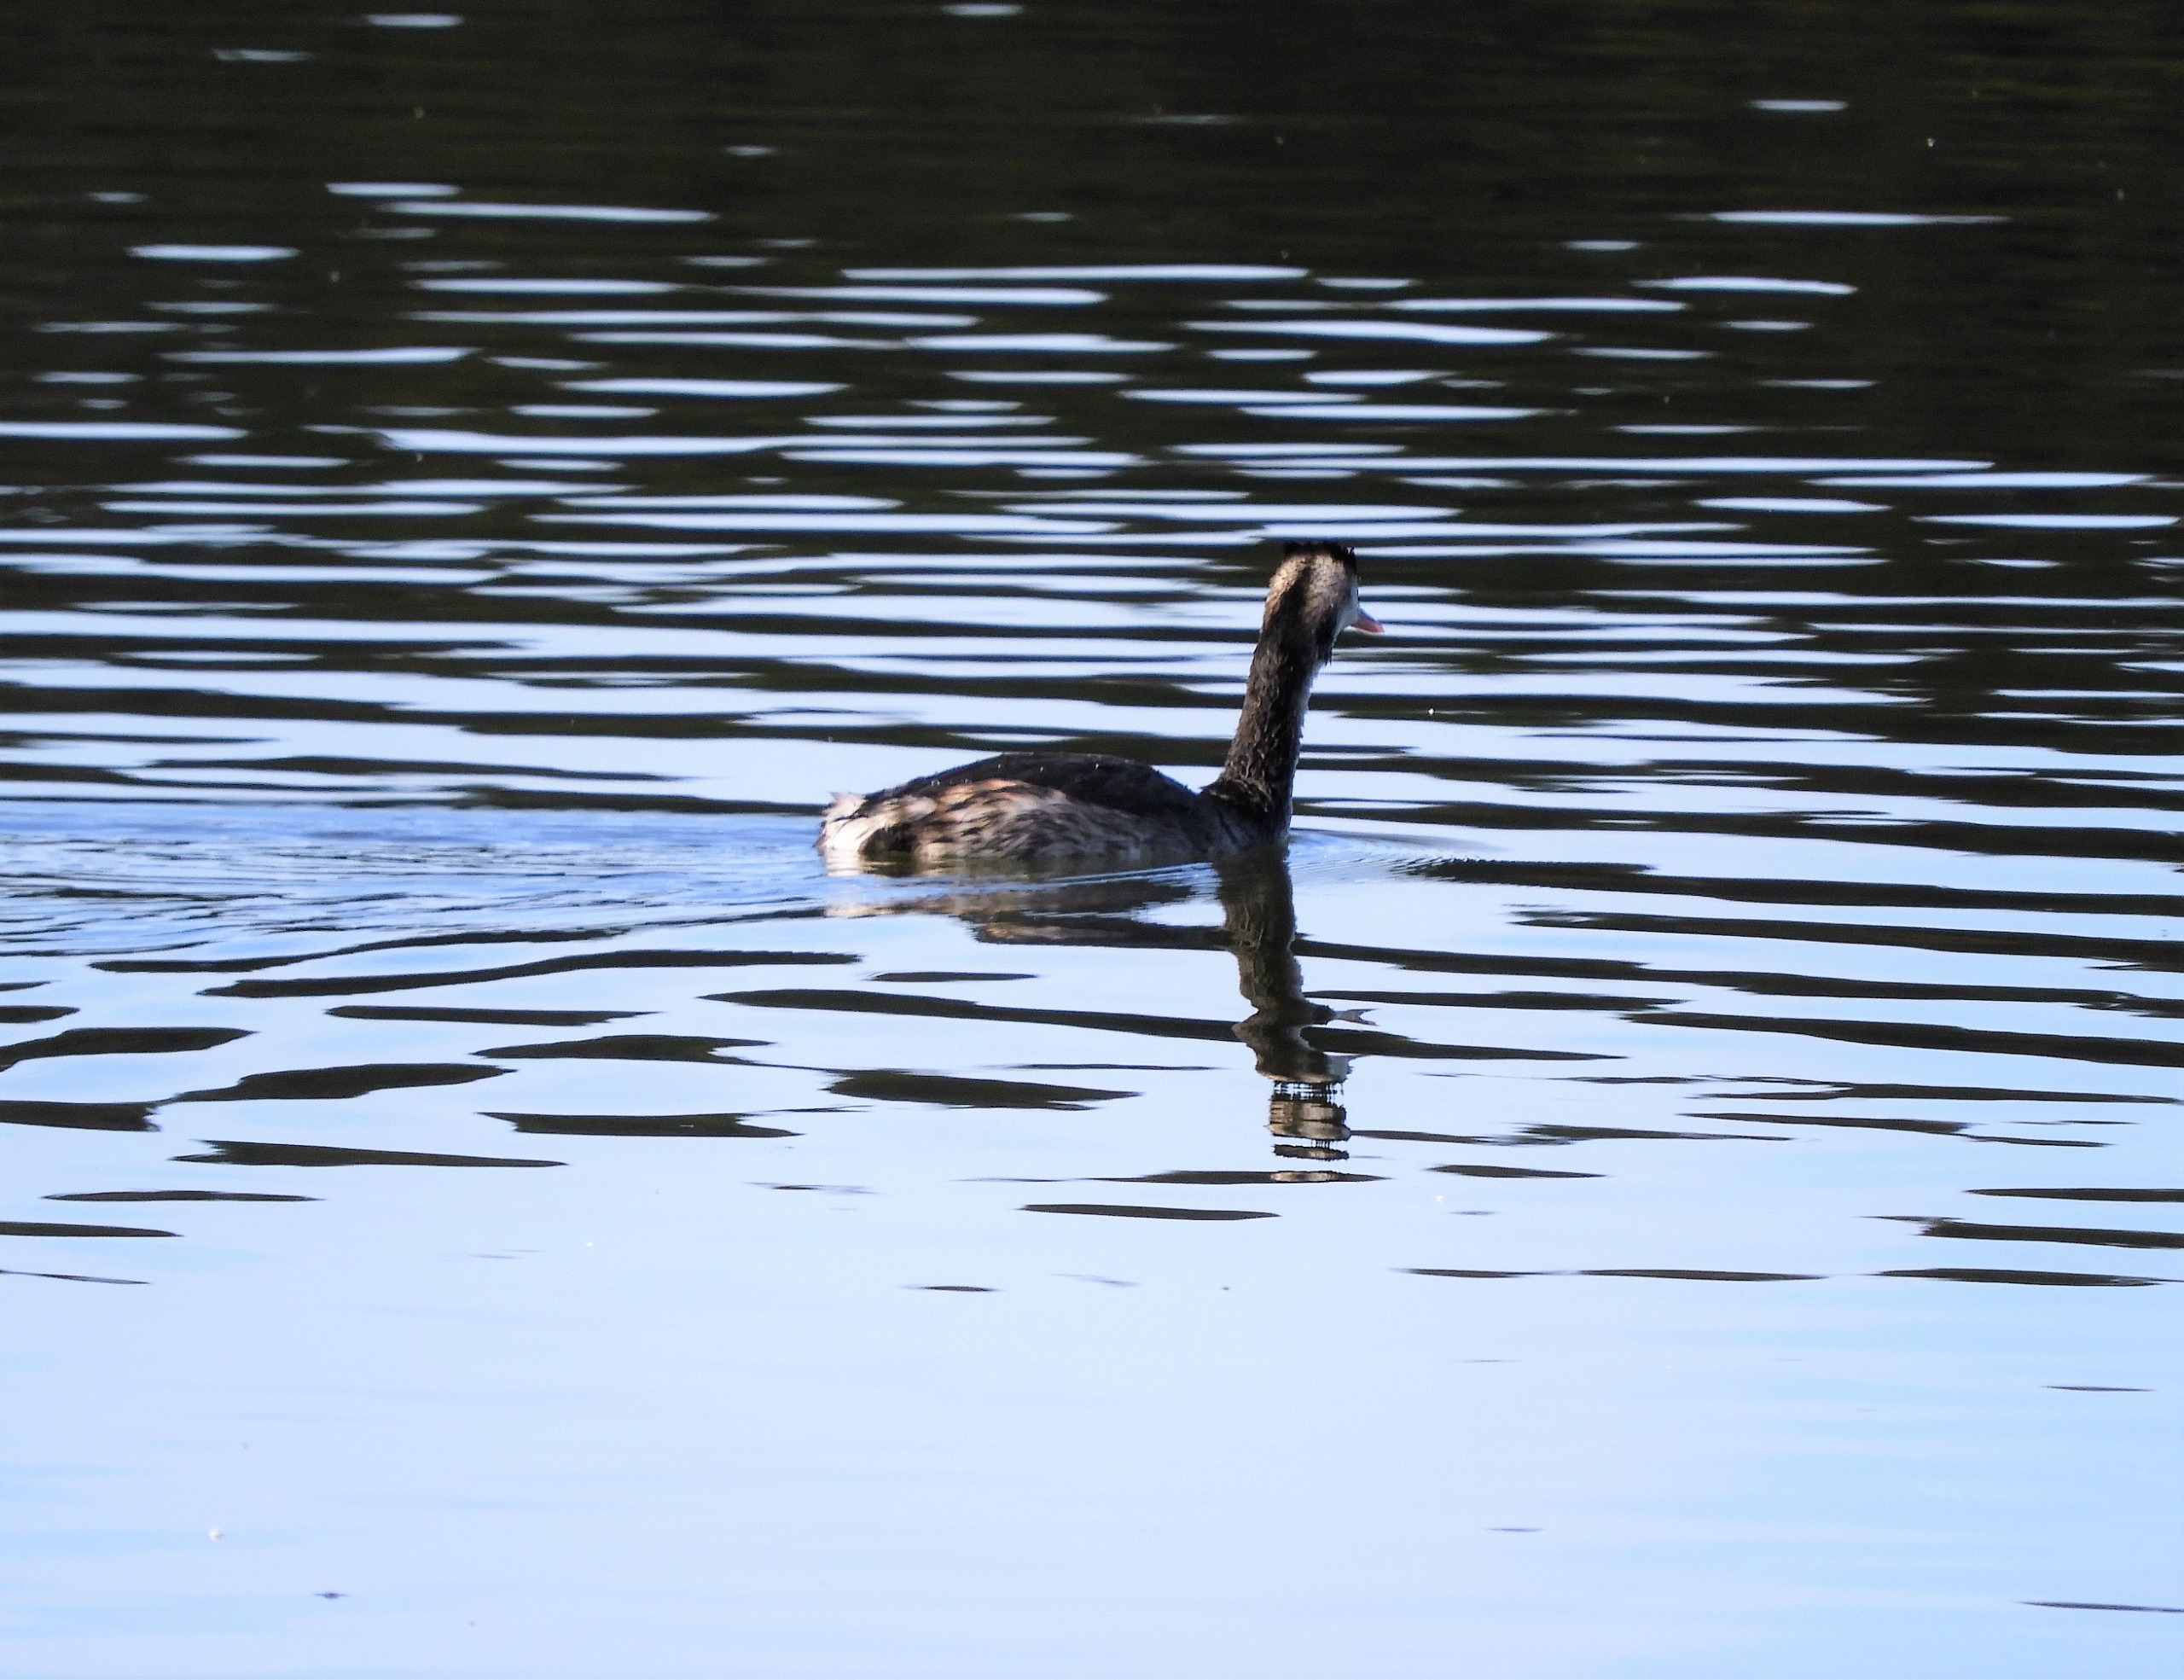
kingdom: Animalia
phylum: Chordata
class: Aves
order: Podicipediformes
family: Podicipedidae
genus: Podiceps
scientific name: Podiceps cristatus
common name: Toppet lappedykker
